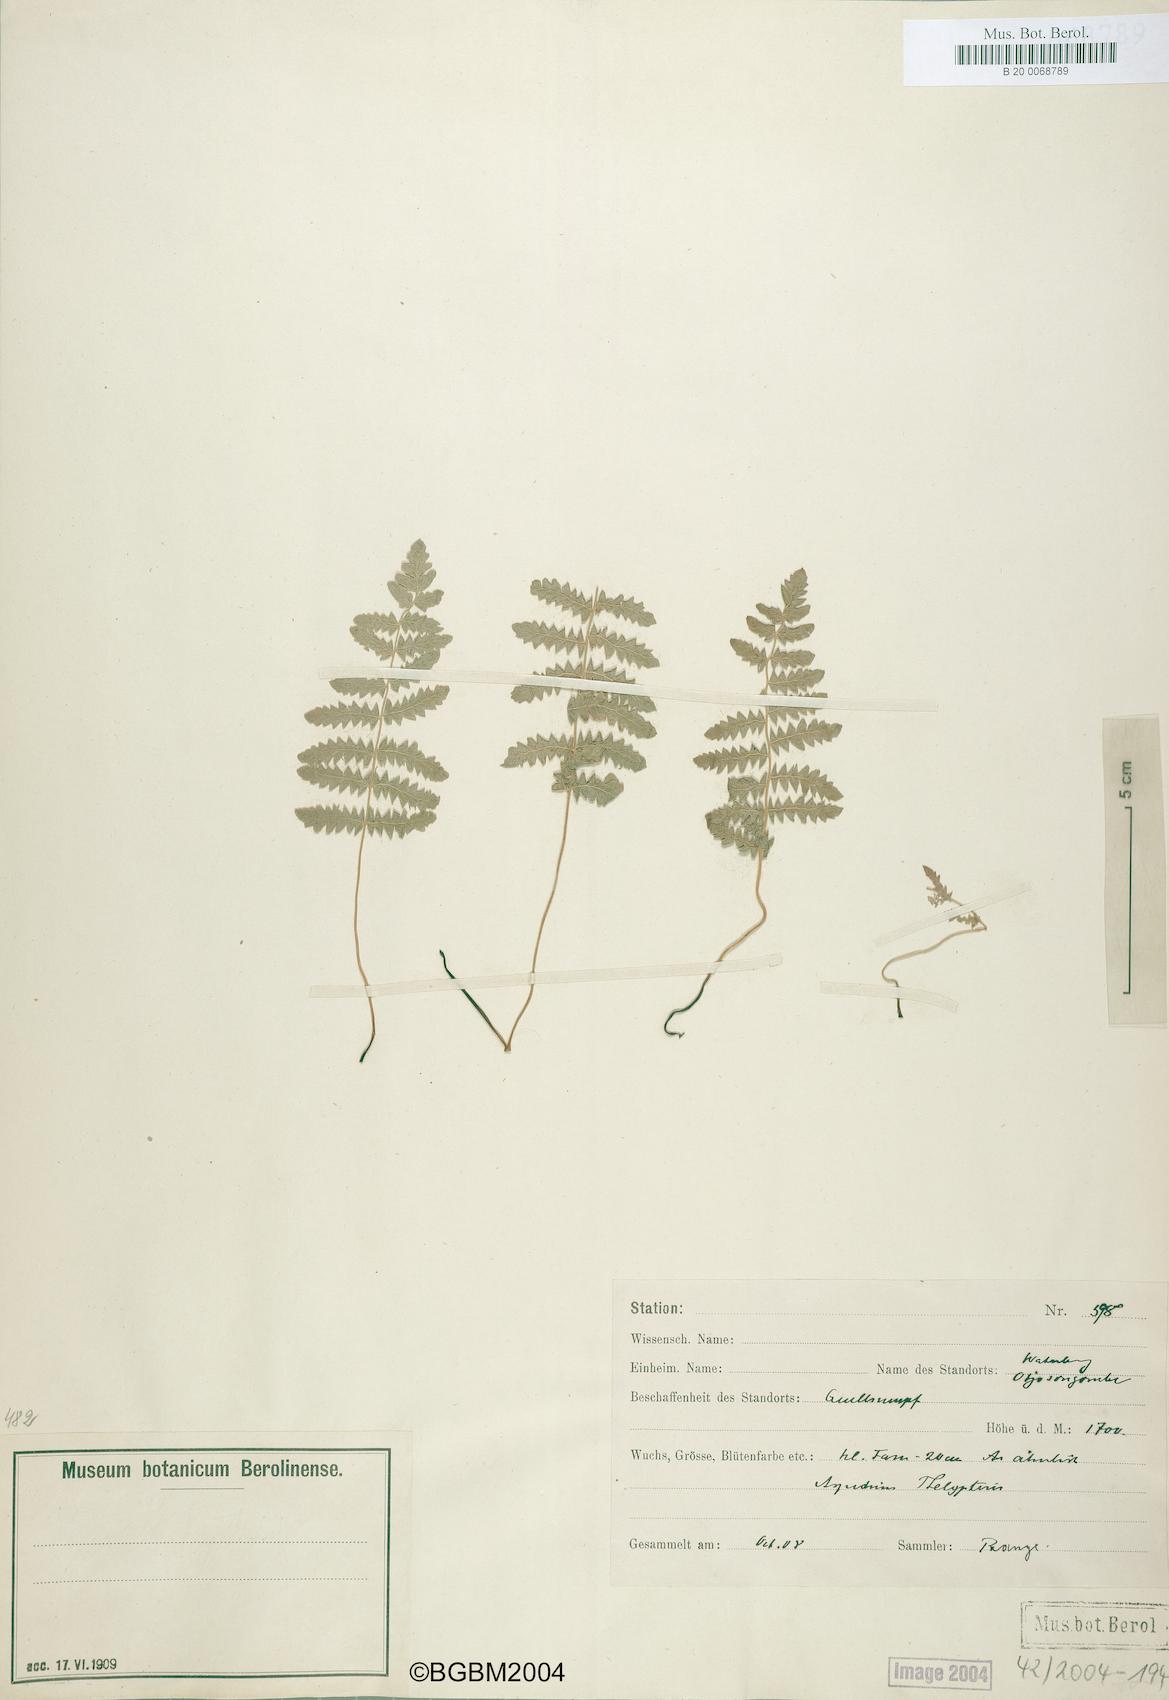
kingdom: Plantae
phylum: Tracheophyta
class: Polypodiopsida
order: Polypodiales
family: Thelypteridaceae
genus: Thelypteris
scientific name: Thelypteris palustris
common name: Marsh fern
